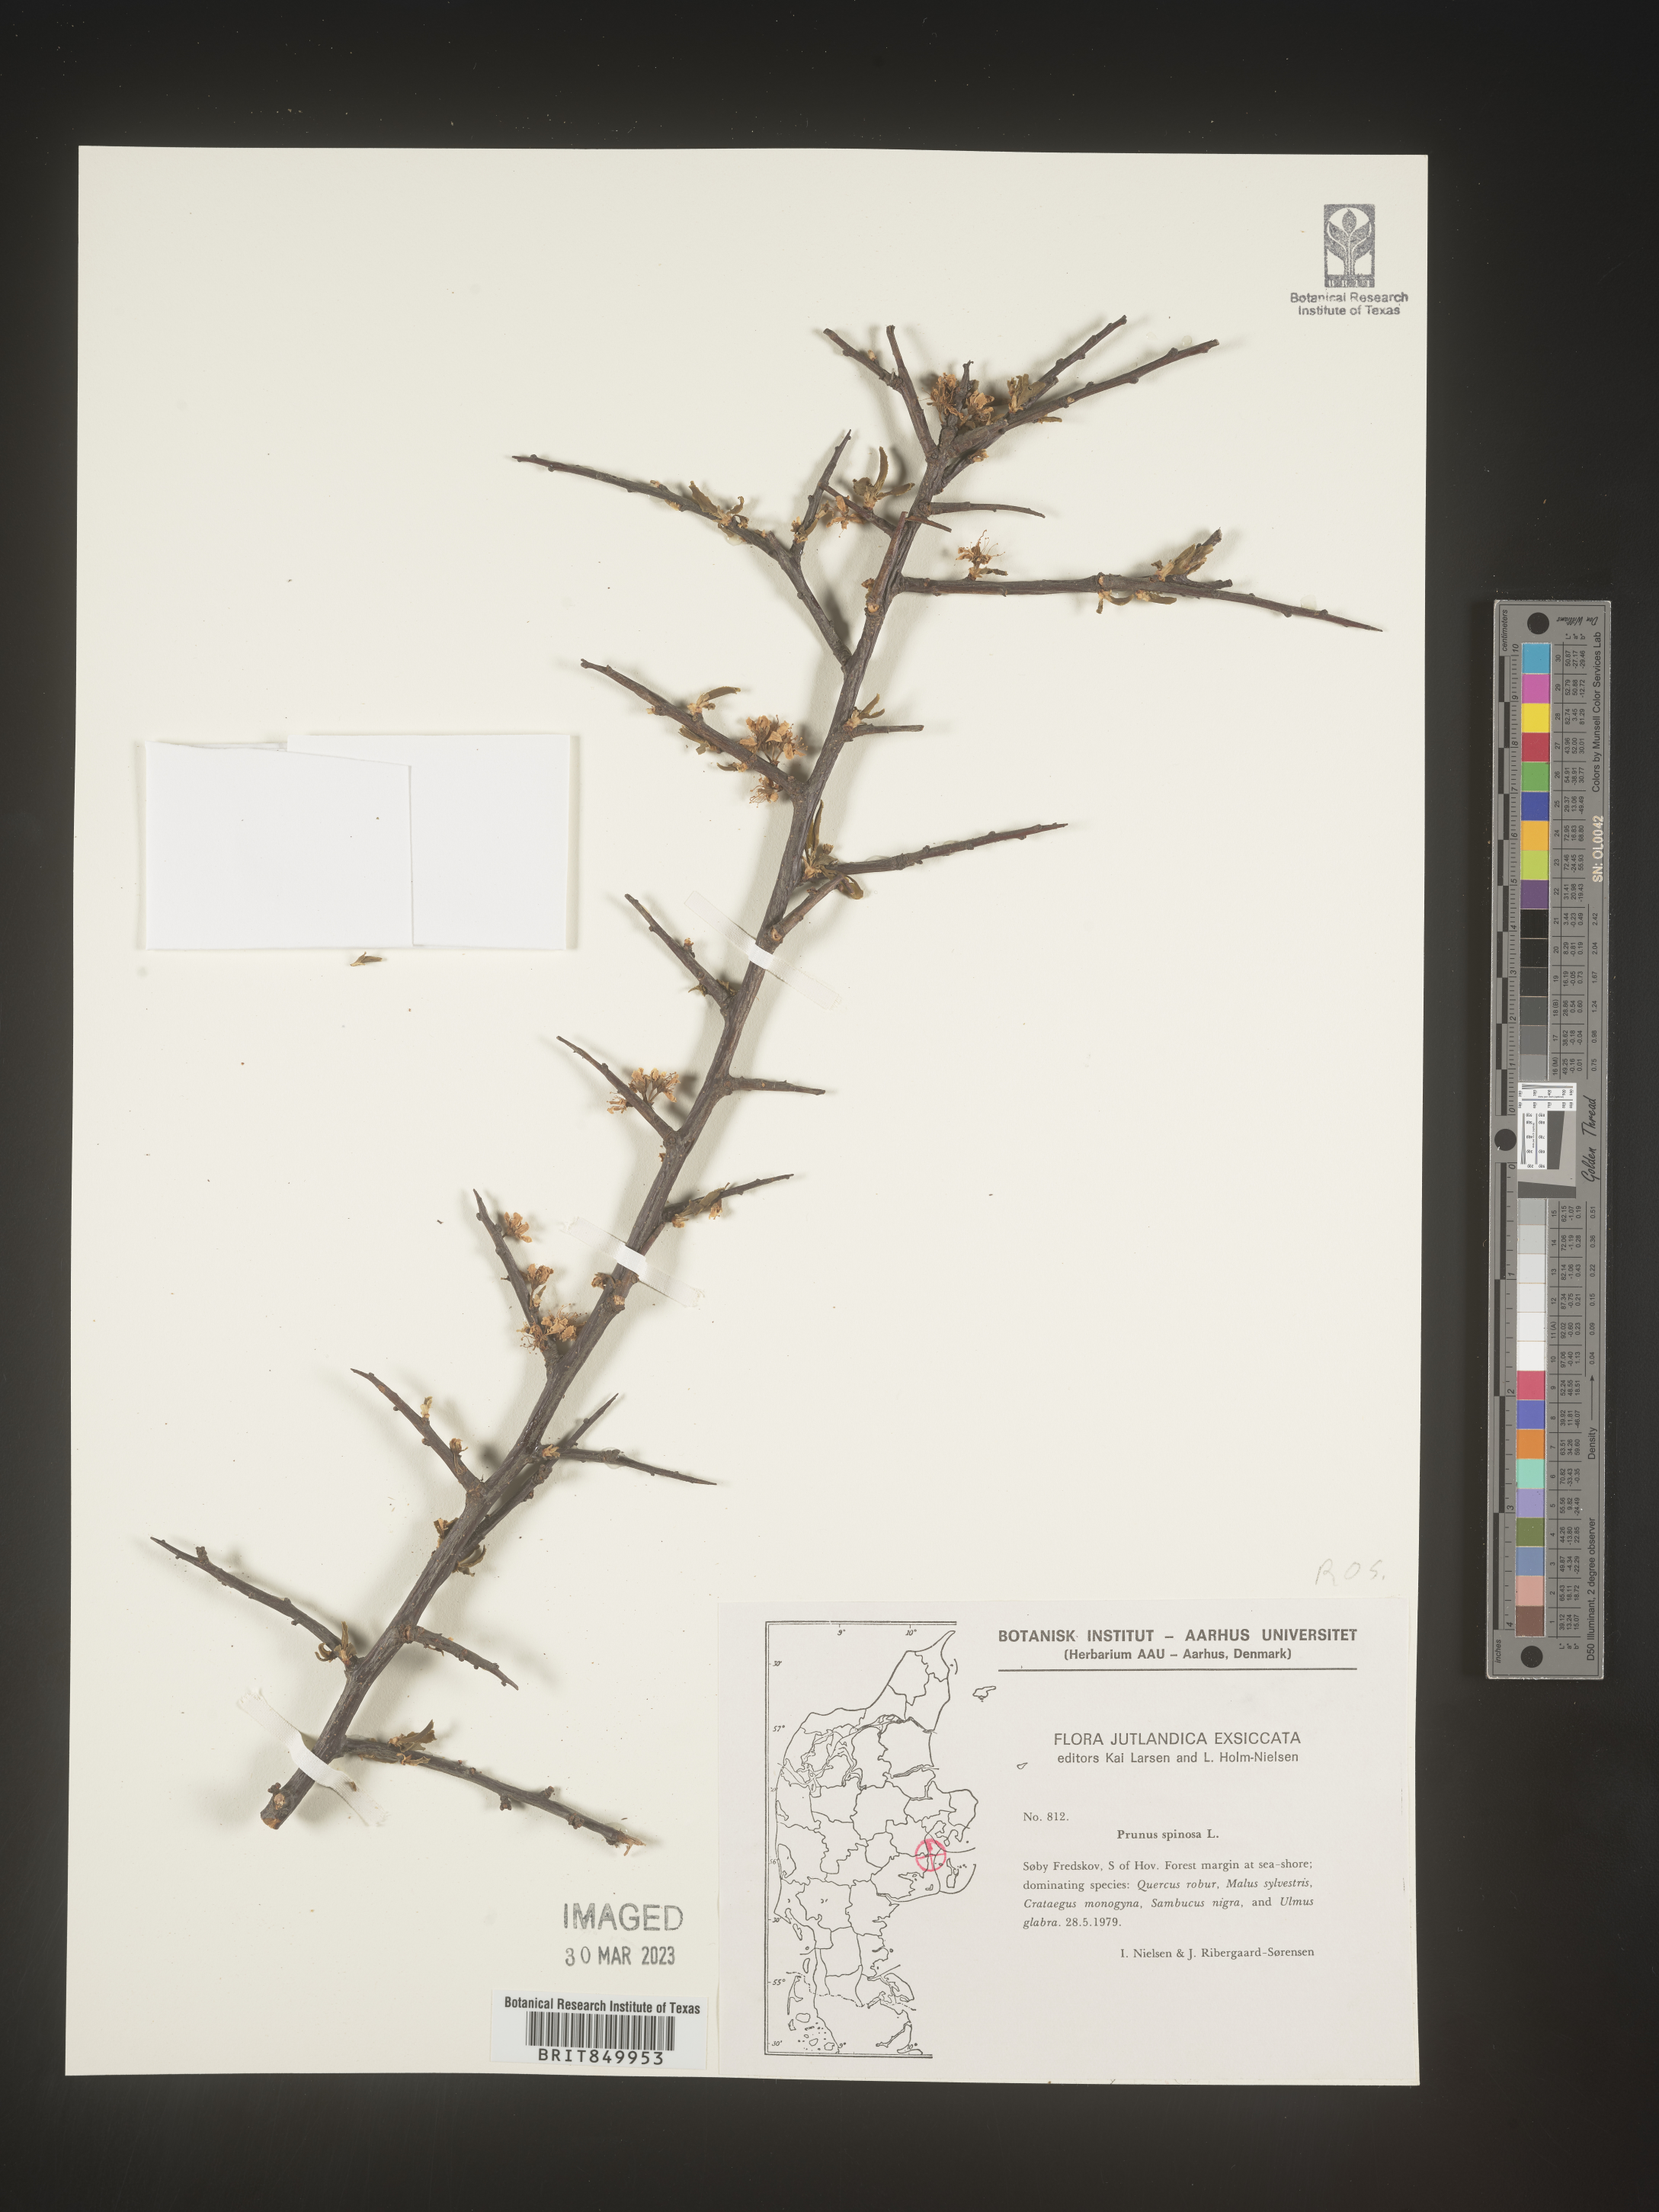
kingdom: Plantae
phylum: Tracheophyta
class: Magnoliopsida
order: Rosales
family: Rosaceae
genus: Prunus
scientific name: Prunus
